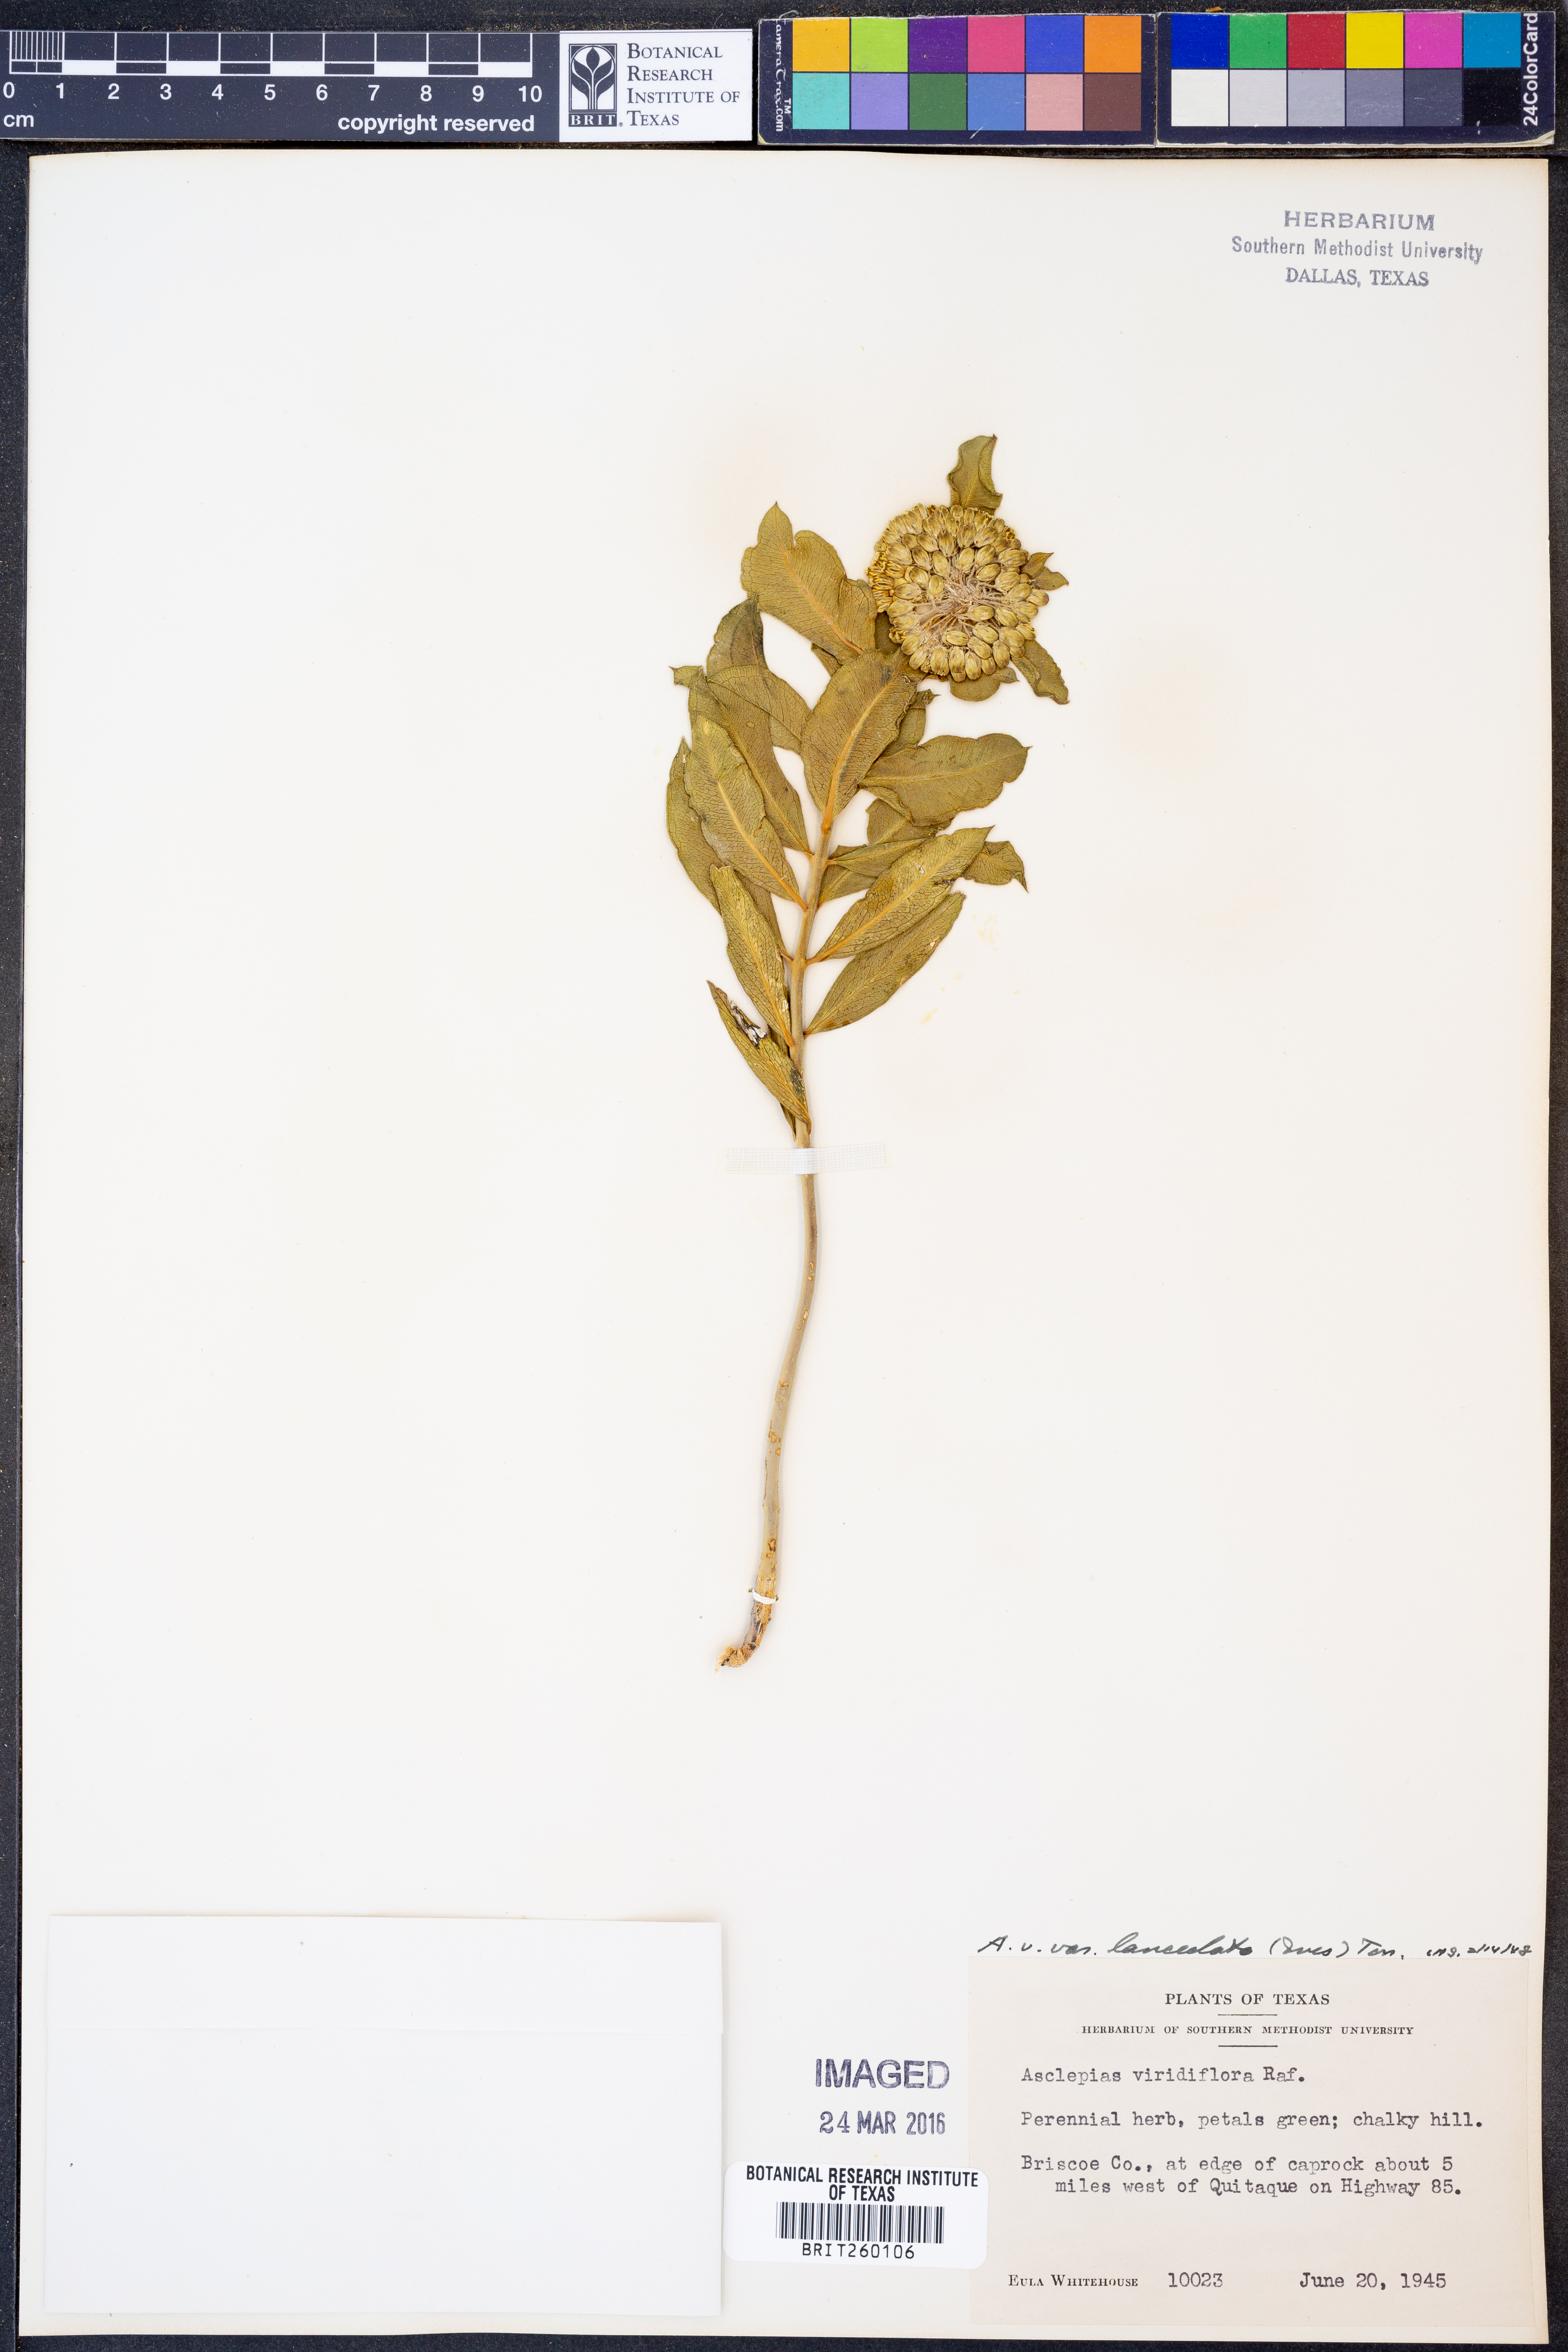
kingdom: Plantae
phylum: Tracheophyta
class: Magnoliopsida
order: Gentianales
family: Apocynaceae
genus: Asclepias
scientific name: Asclepias viridiflora
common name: Green comet milkweed
